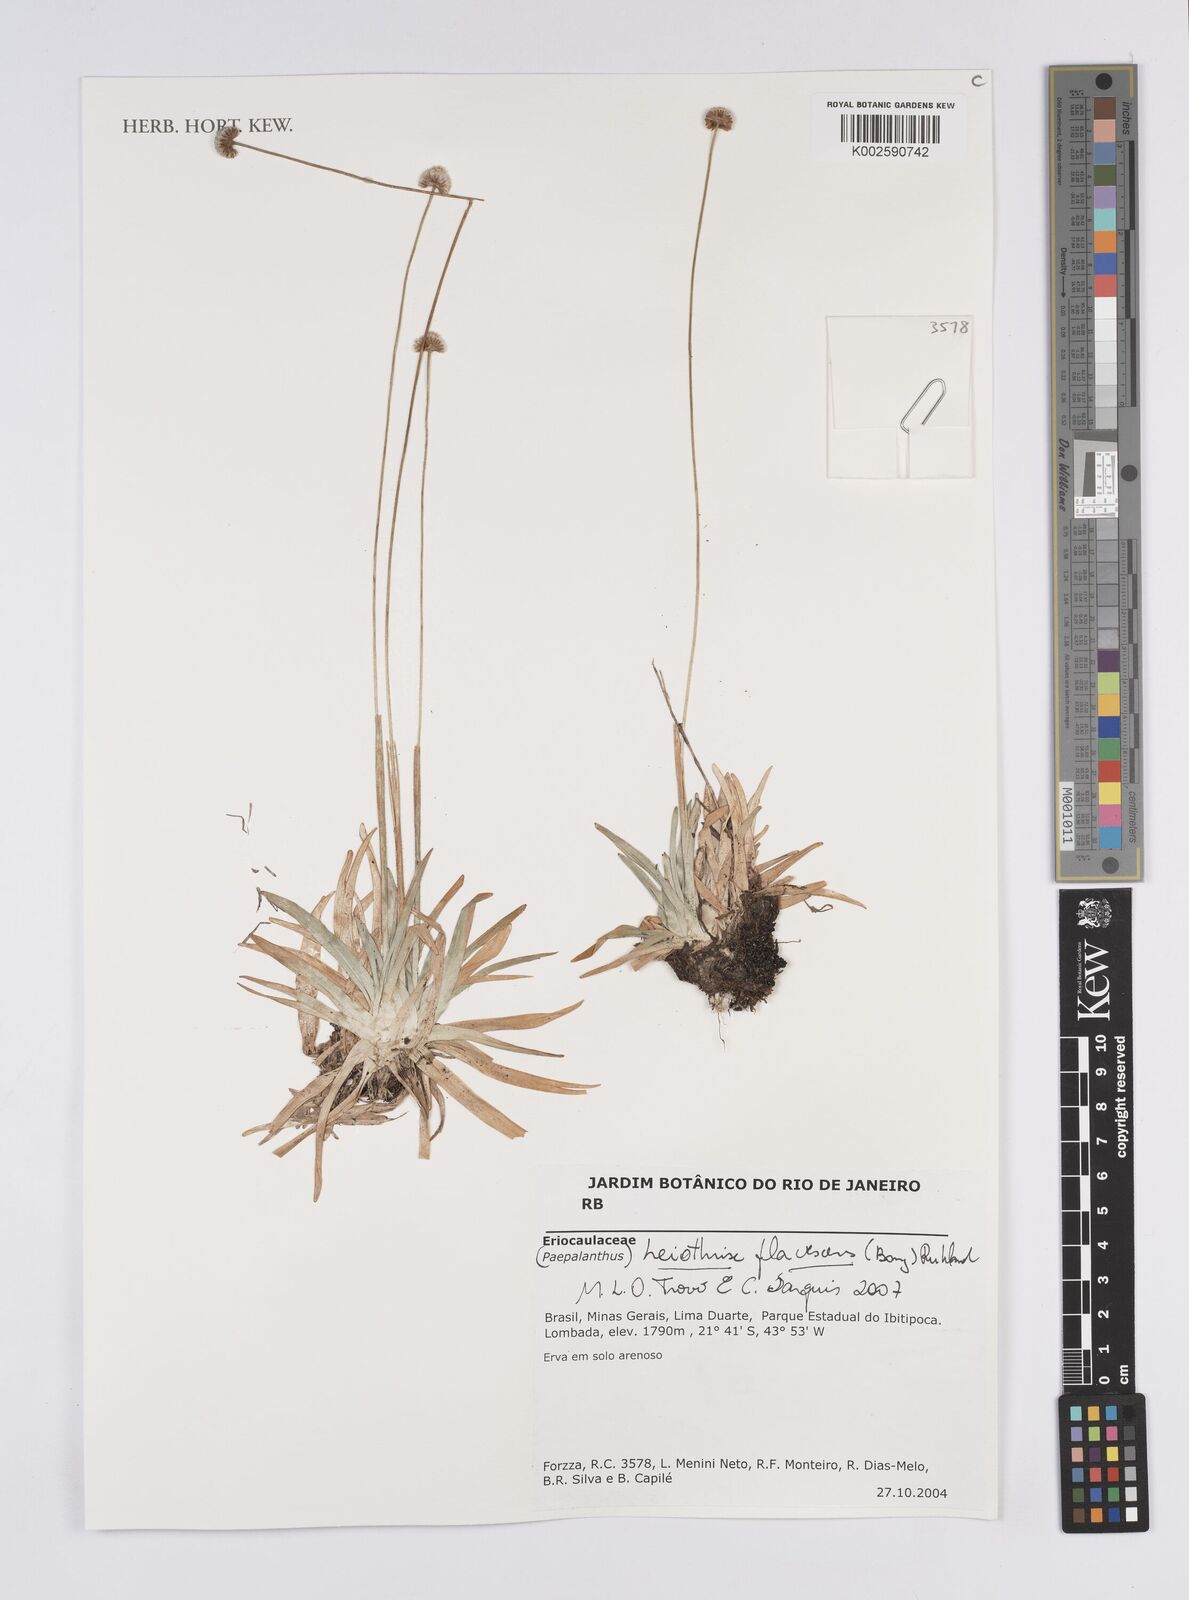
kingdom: Plantae
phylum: Tracheophyta
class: Liliopsida
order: Poales
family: Eriocaulaceae
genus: Leiothrix
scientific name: Leiothrix flavescens
